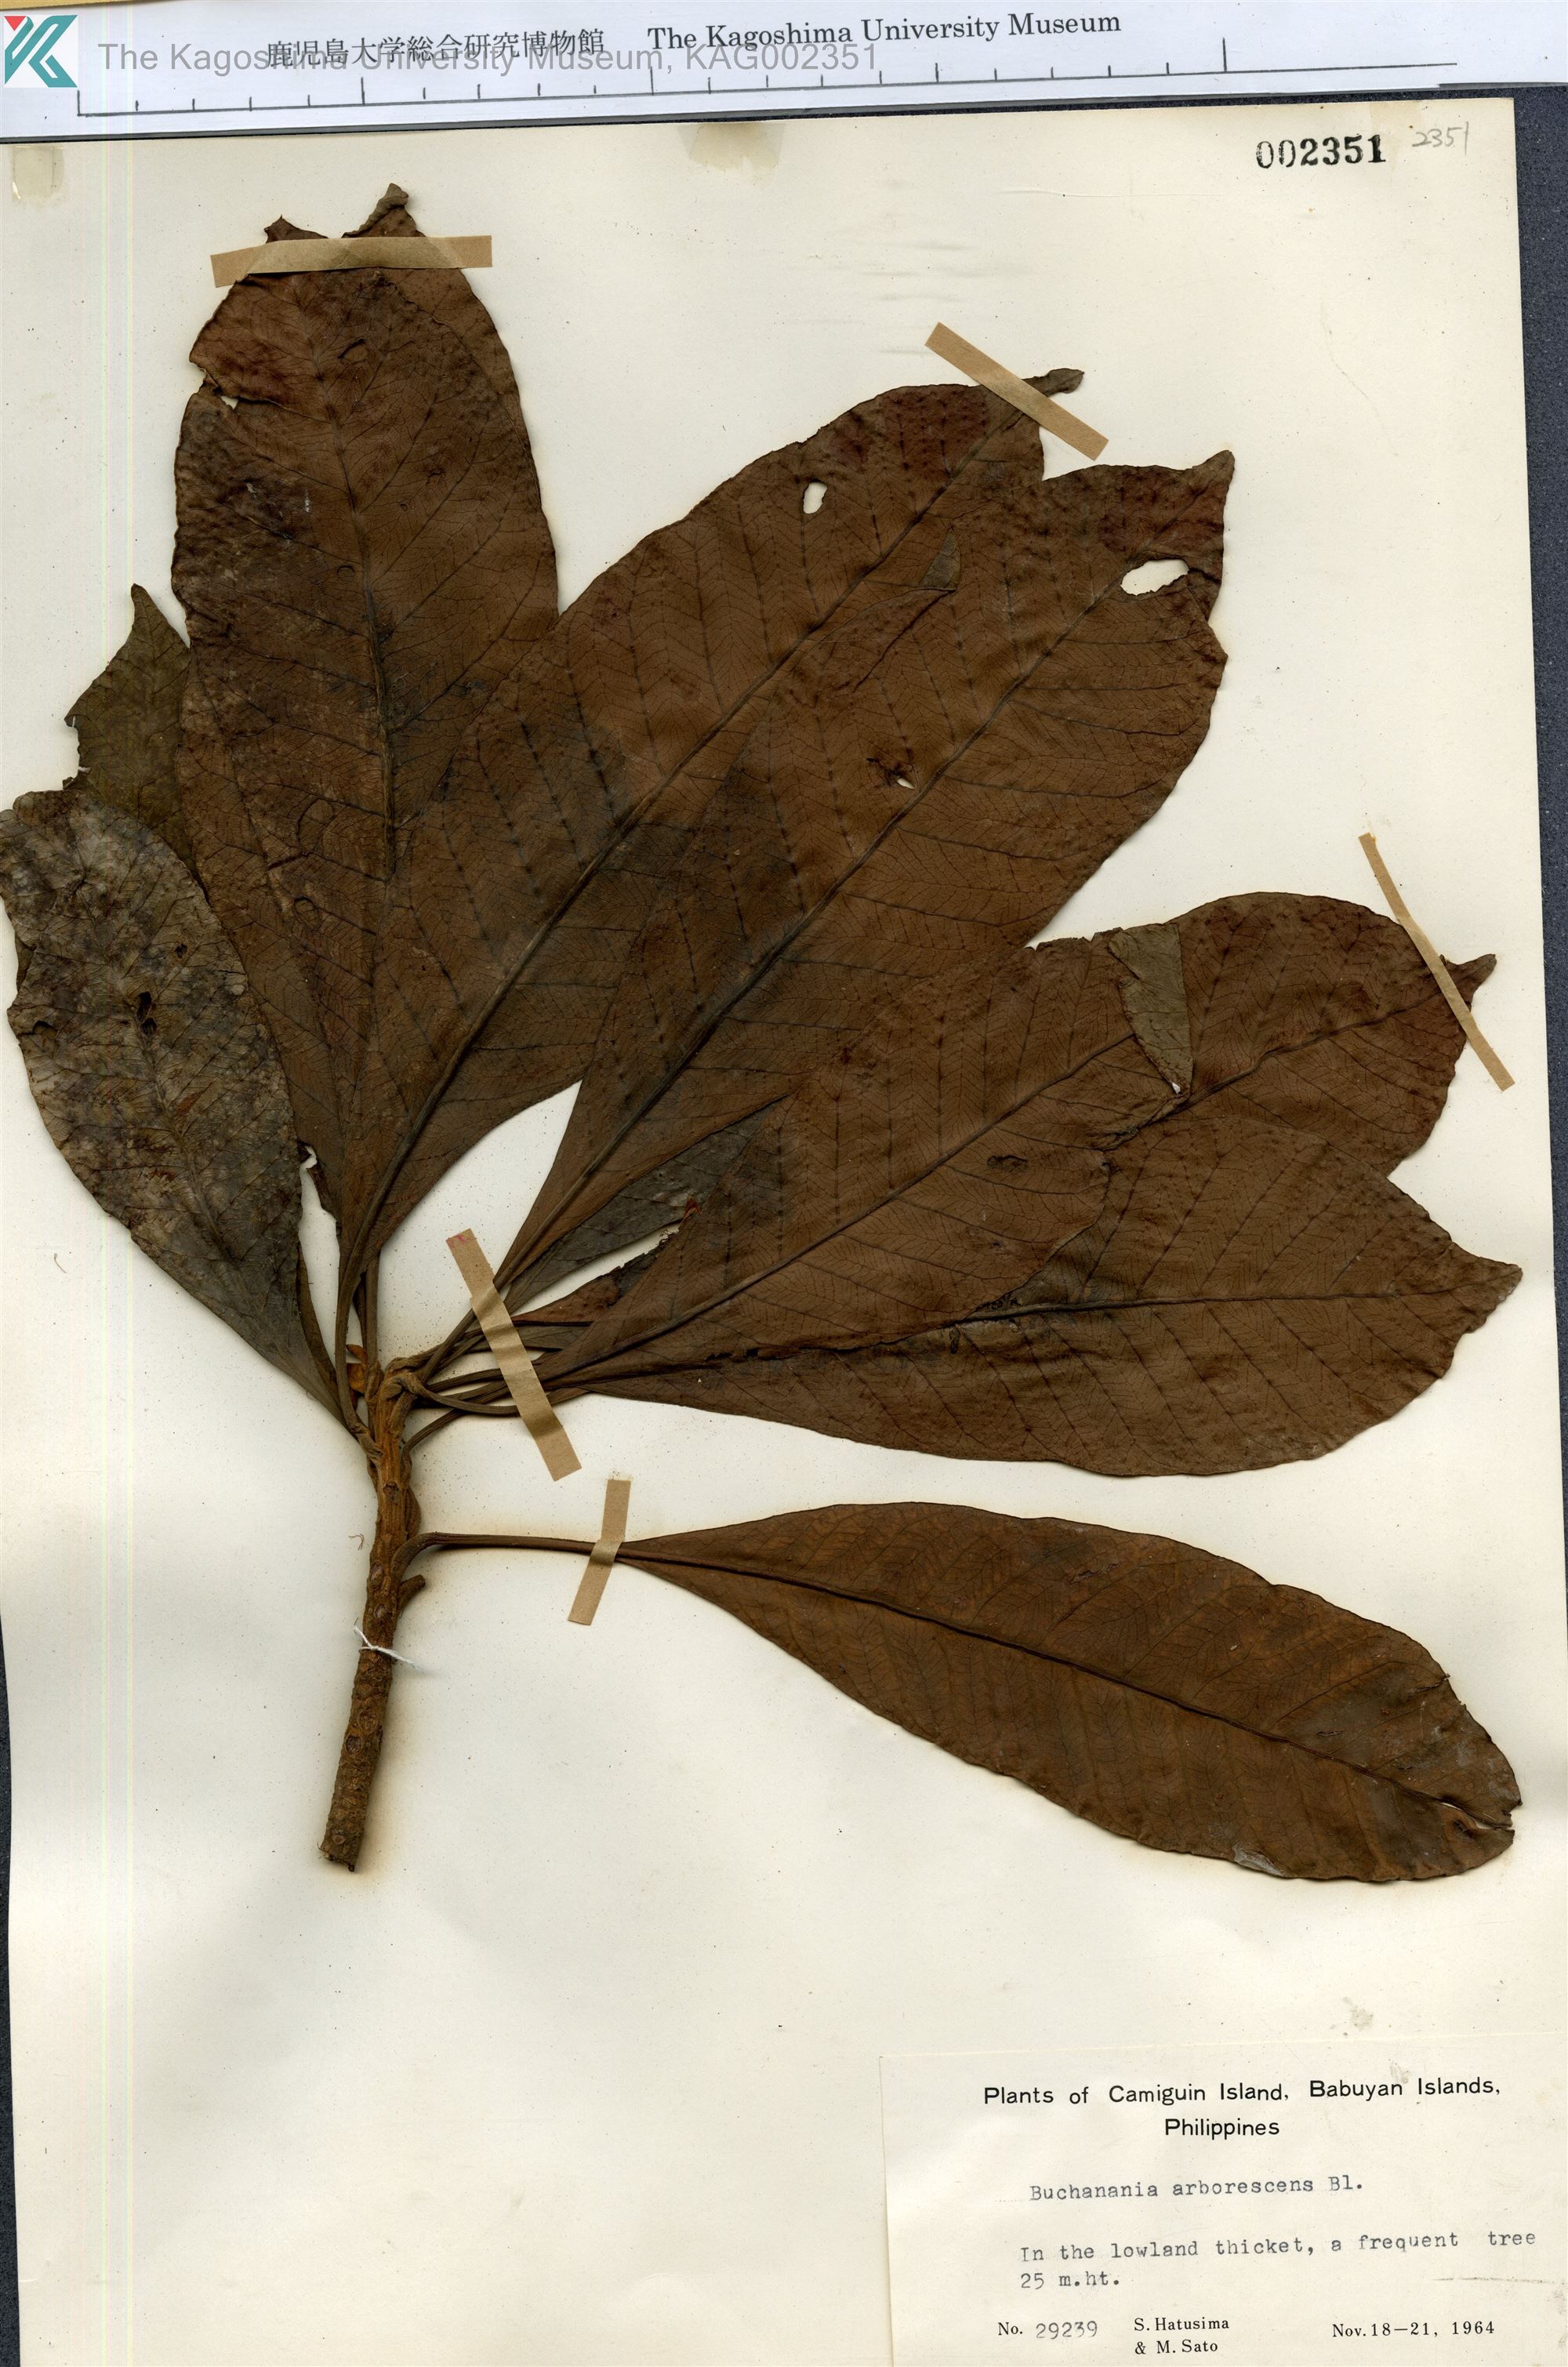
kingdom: Plantae
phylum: Tracheophyta
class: Magnoliopsida
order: Sapindales
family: Anacardiaceae
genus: Buchanania
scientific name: Buchanania arborescens
